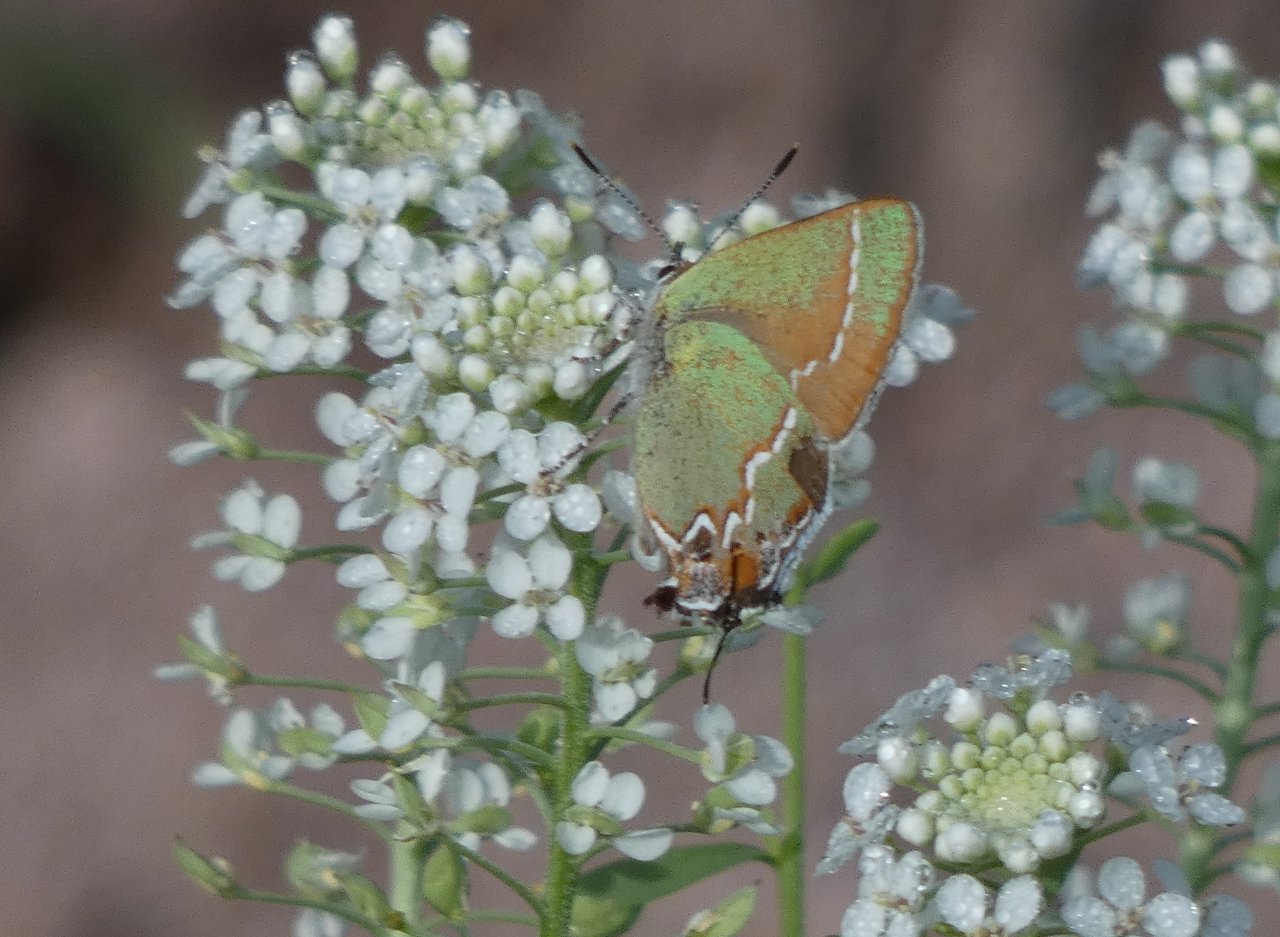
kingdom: Animalia
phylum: Arthropoda
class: Insecta
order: Lepidoptera
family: Lycaenidae
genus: Mitoura
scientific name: Mitoura gryneus
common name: Juniper Hairstreak
